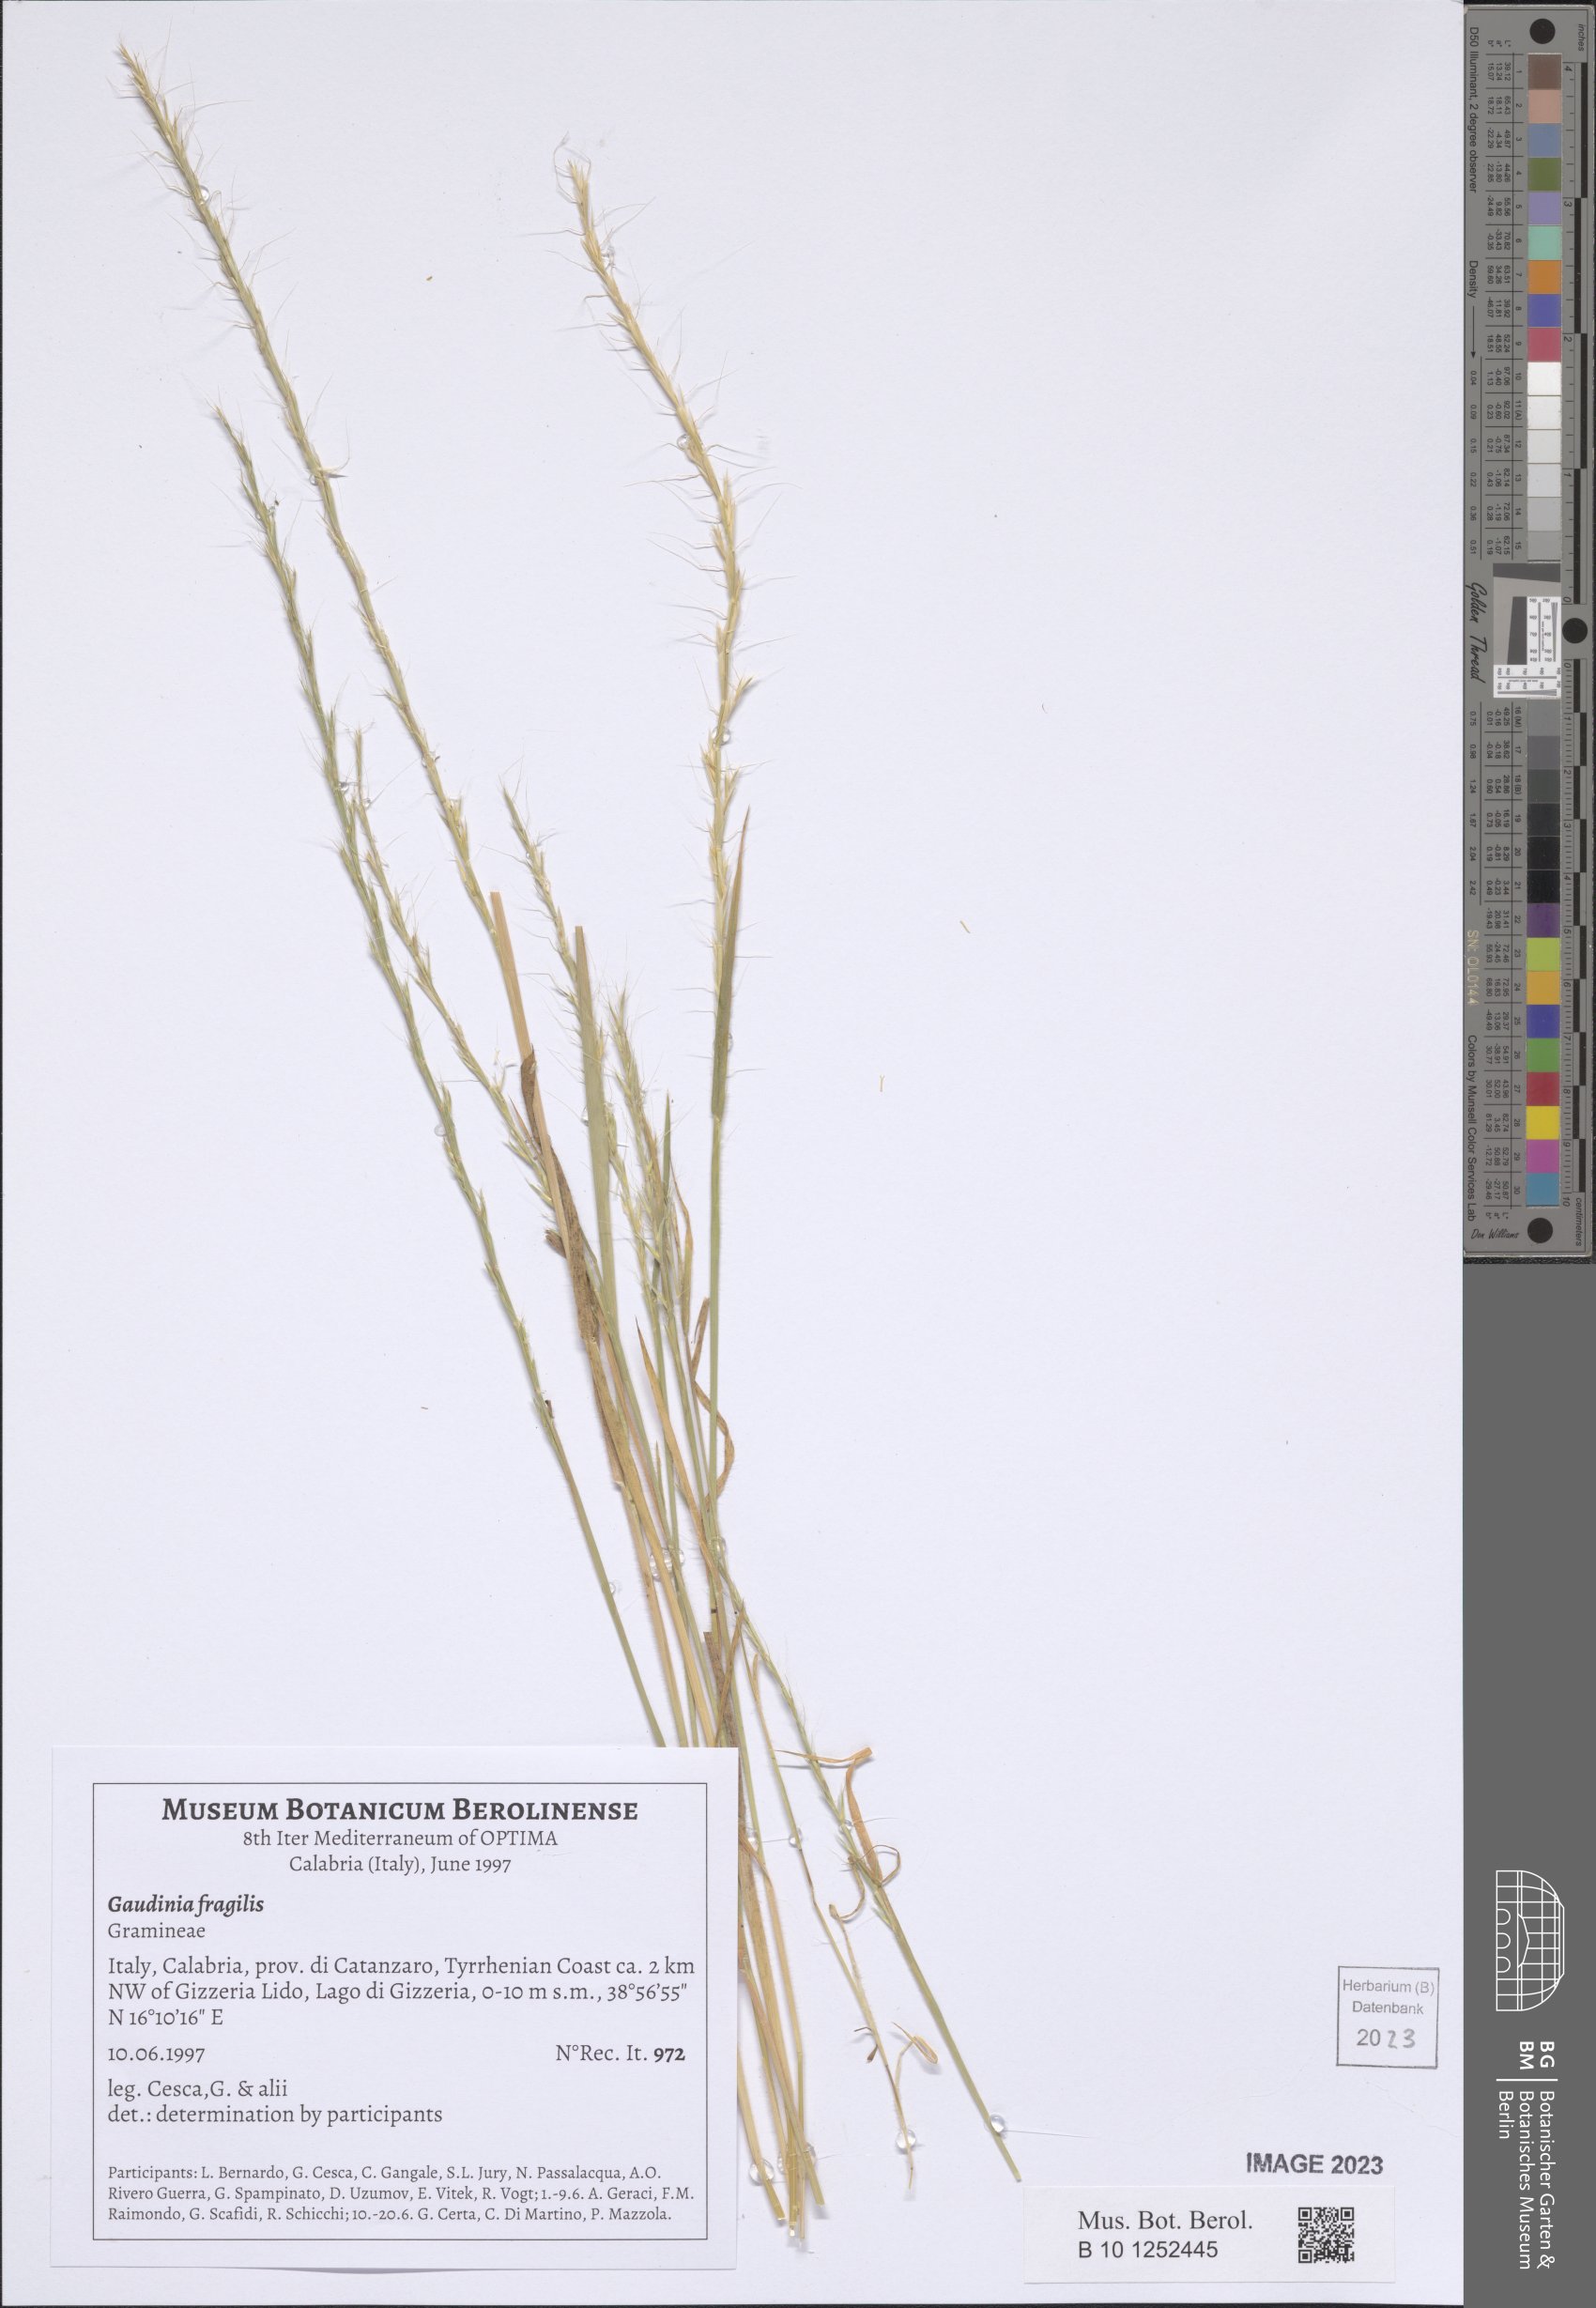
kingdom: Plantae
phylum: Tracheophyta
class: Liliopsida
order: Poales
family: Poaceae
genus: Gaudinia
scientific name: Gaudinia fragilis
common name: French oat-grass
